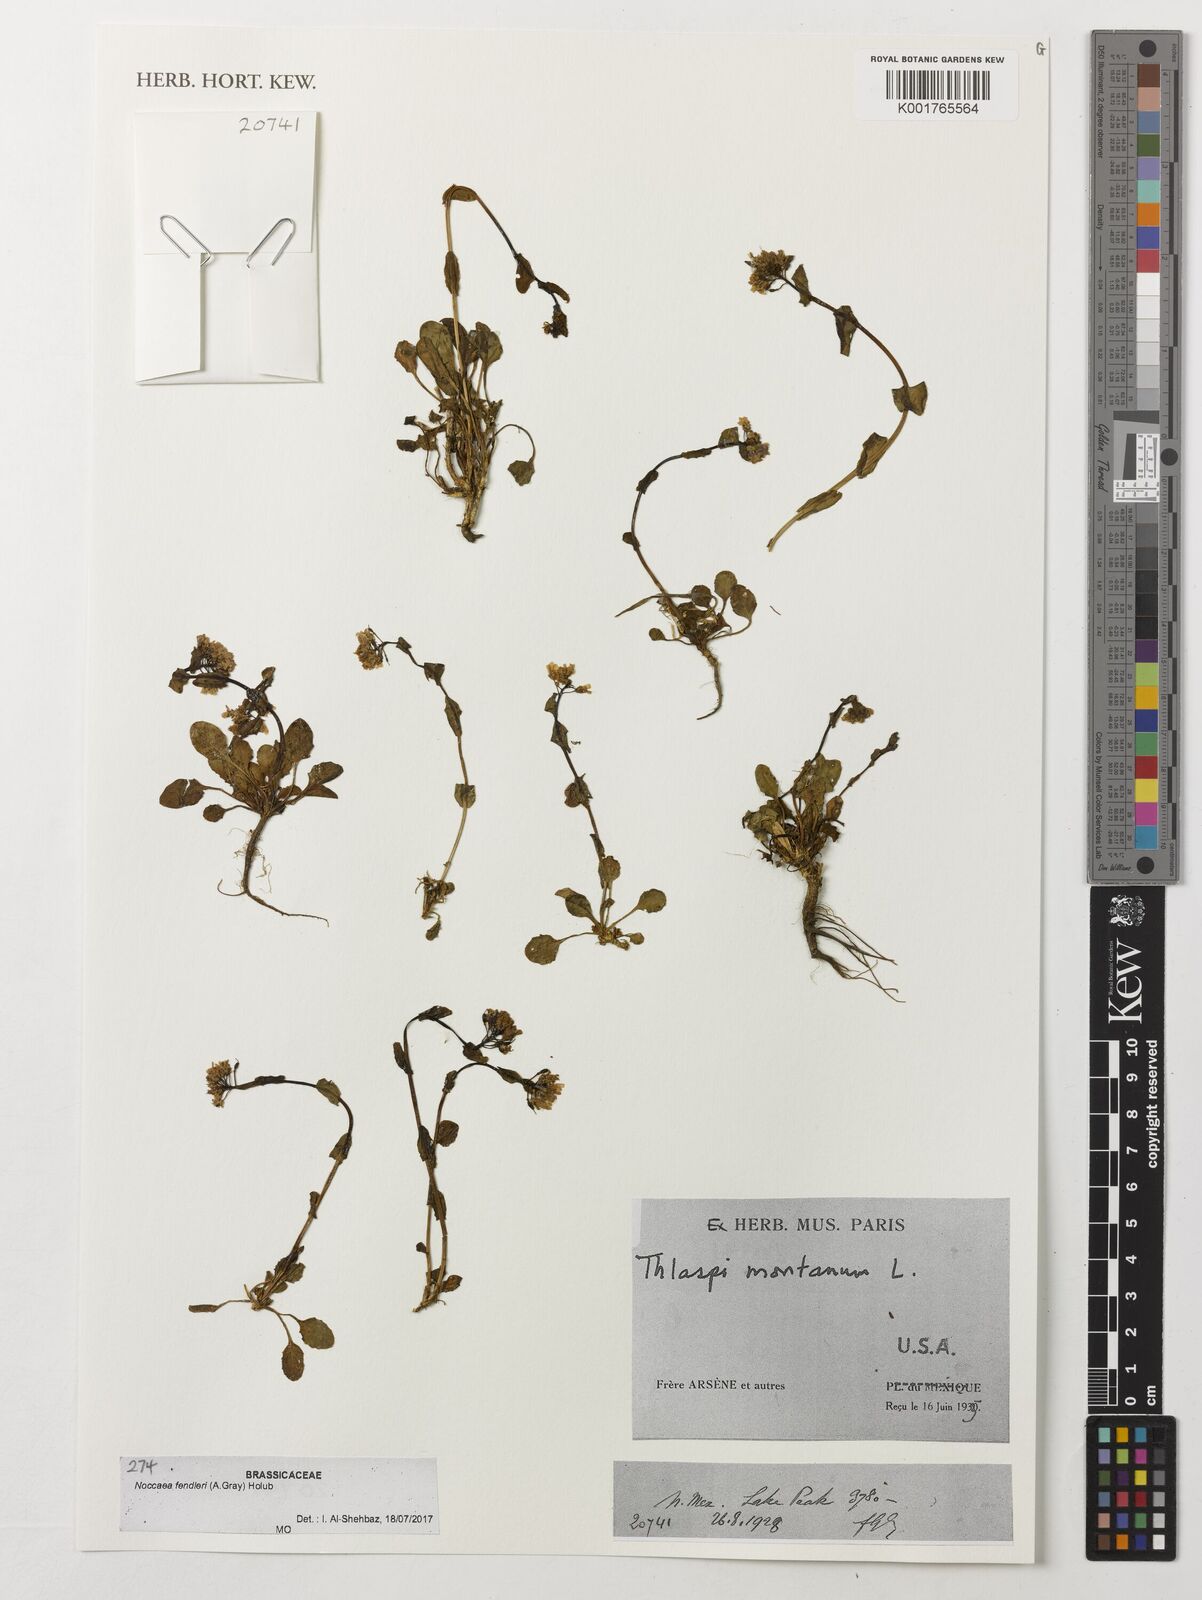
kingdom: Plantae
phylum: Tracheophyta
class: Magnoliopsida
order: Brassicales
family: Brassicaceae
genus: Noccaea
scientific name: Noccaea fendleri
